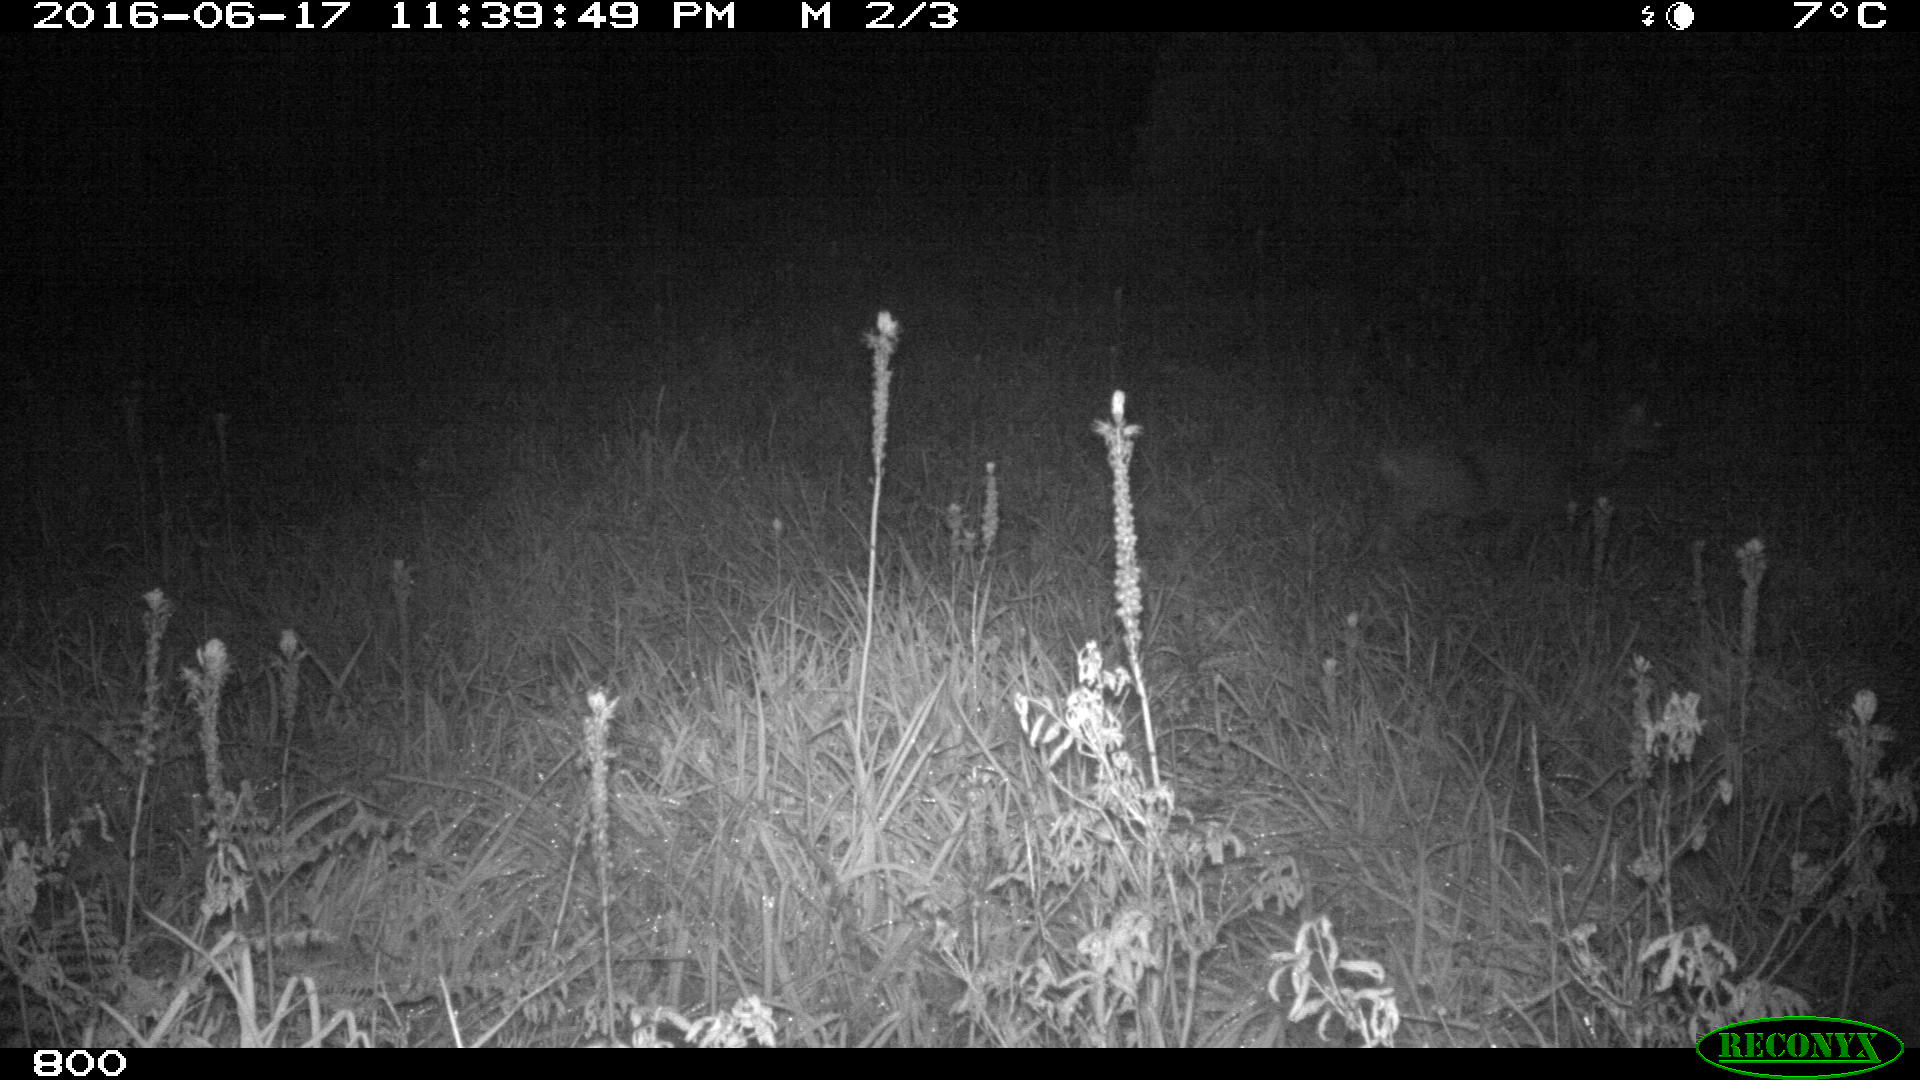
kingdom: Animalia
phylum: Chordata
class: Mammalia
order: Artiodactyla
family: Cervidae
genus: Capreolus
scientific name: Capreolus capreolus
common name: Western roe deer
